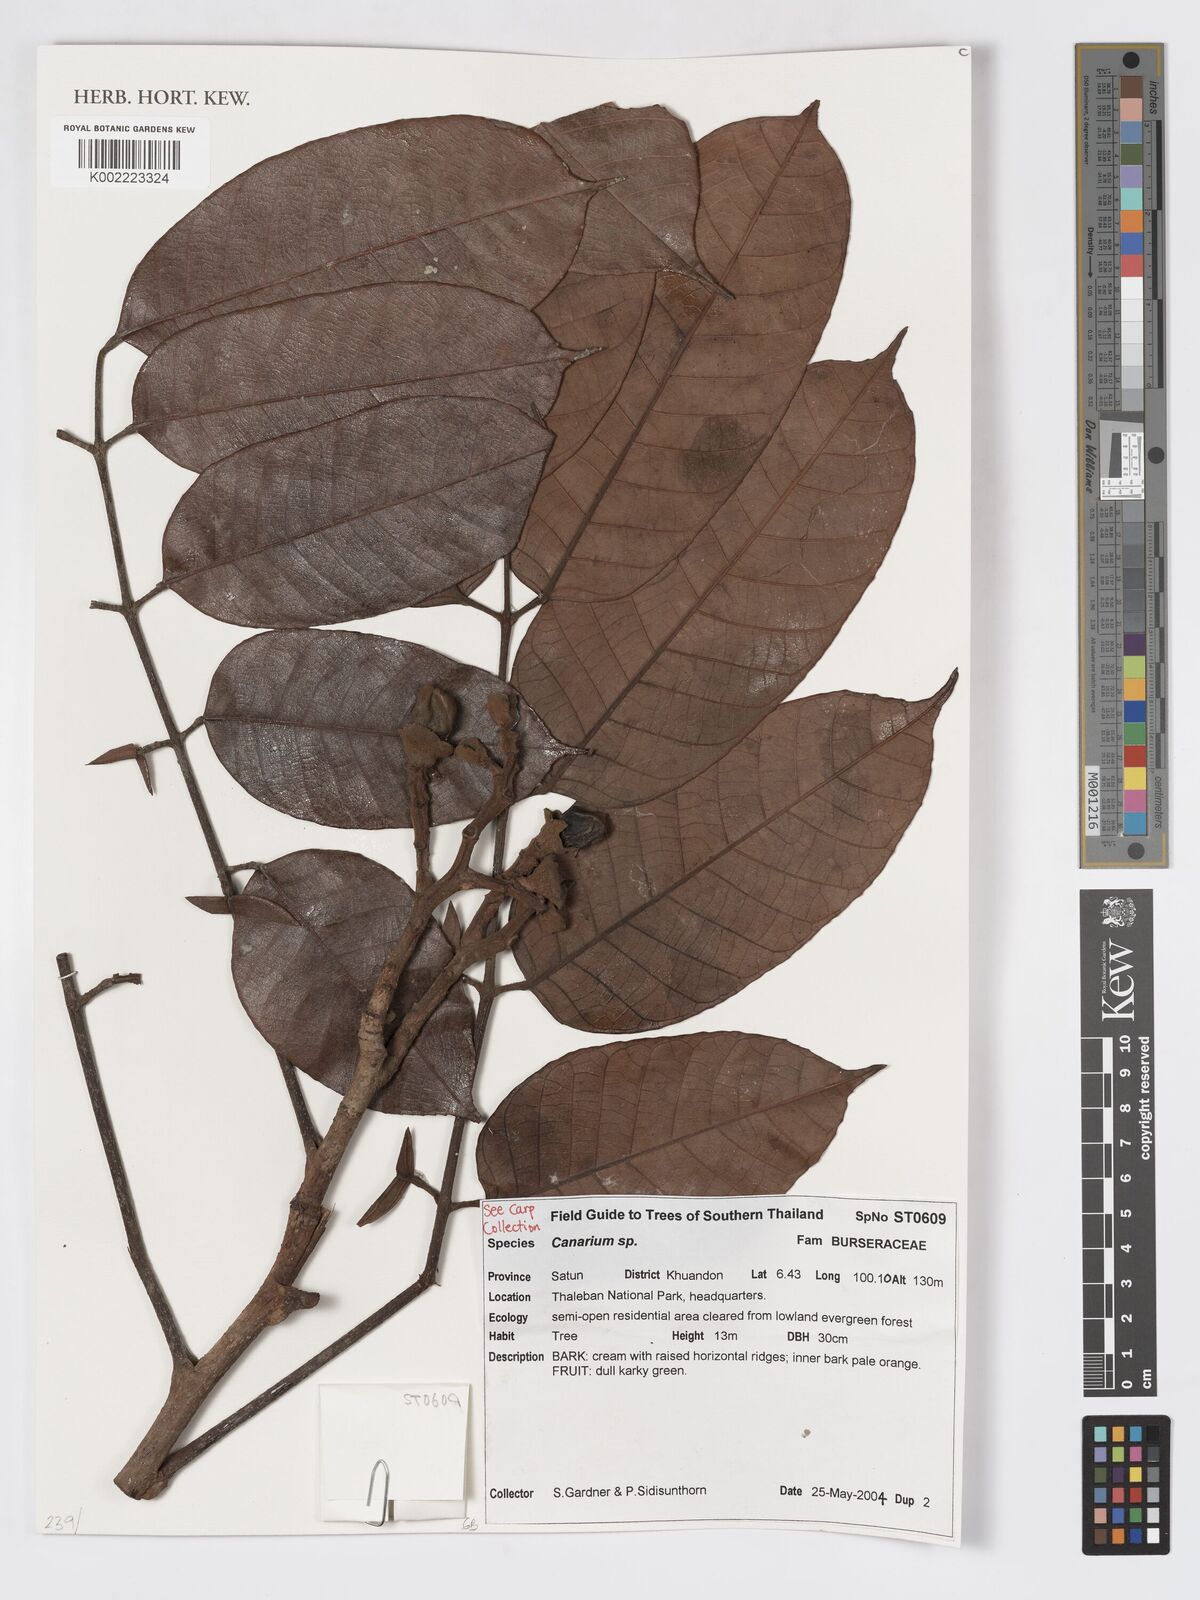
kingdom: Plantae
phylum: Tracheophyta
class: Magnoliopsida
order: Sapindales
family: Burseraceae
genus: Canarium
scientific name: Canarium
